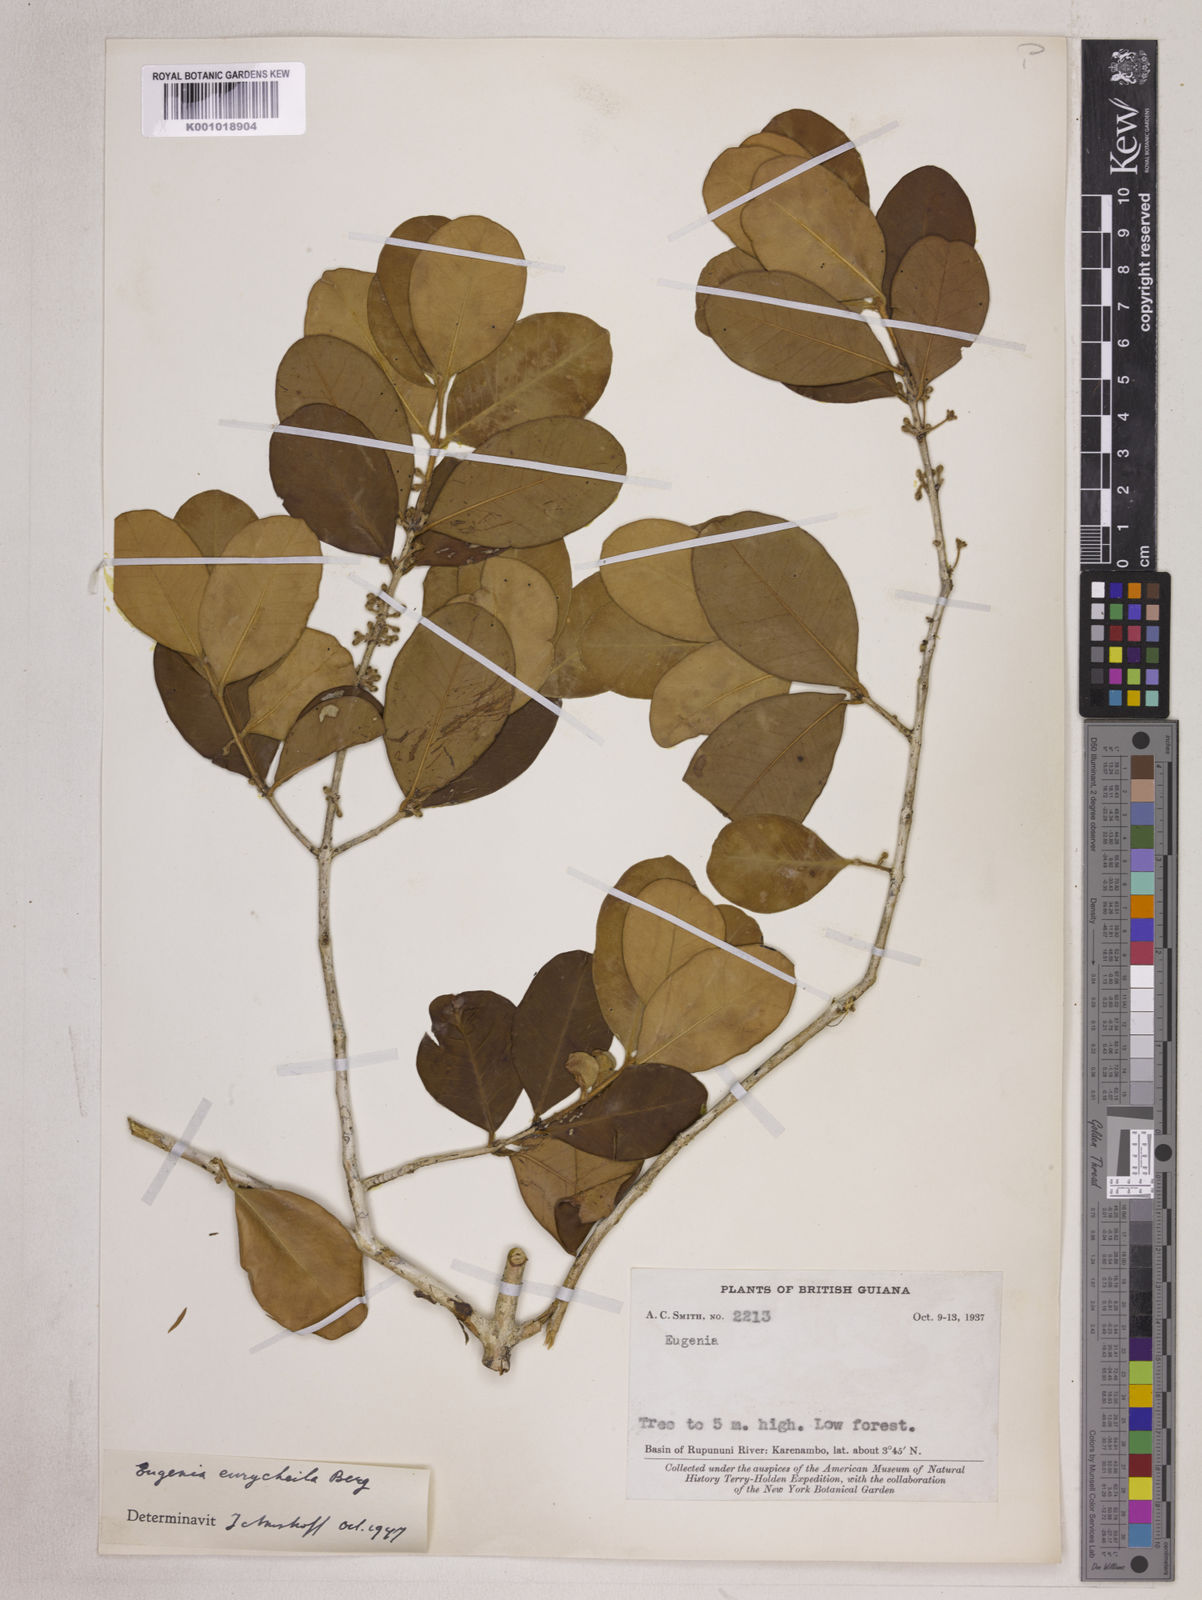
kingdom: Plantae
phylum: Tracheophyta
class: Magnoliopsida
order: Myrtales
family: Myrtaceae
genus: Eugenia
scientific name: Eugenia eurycheila
